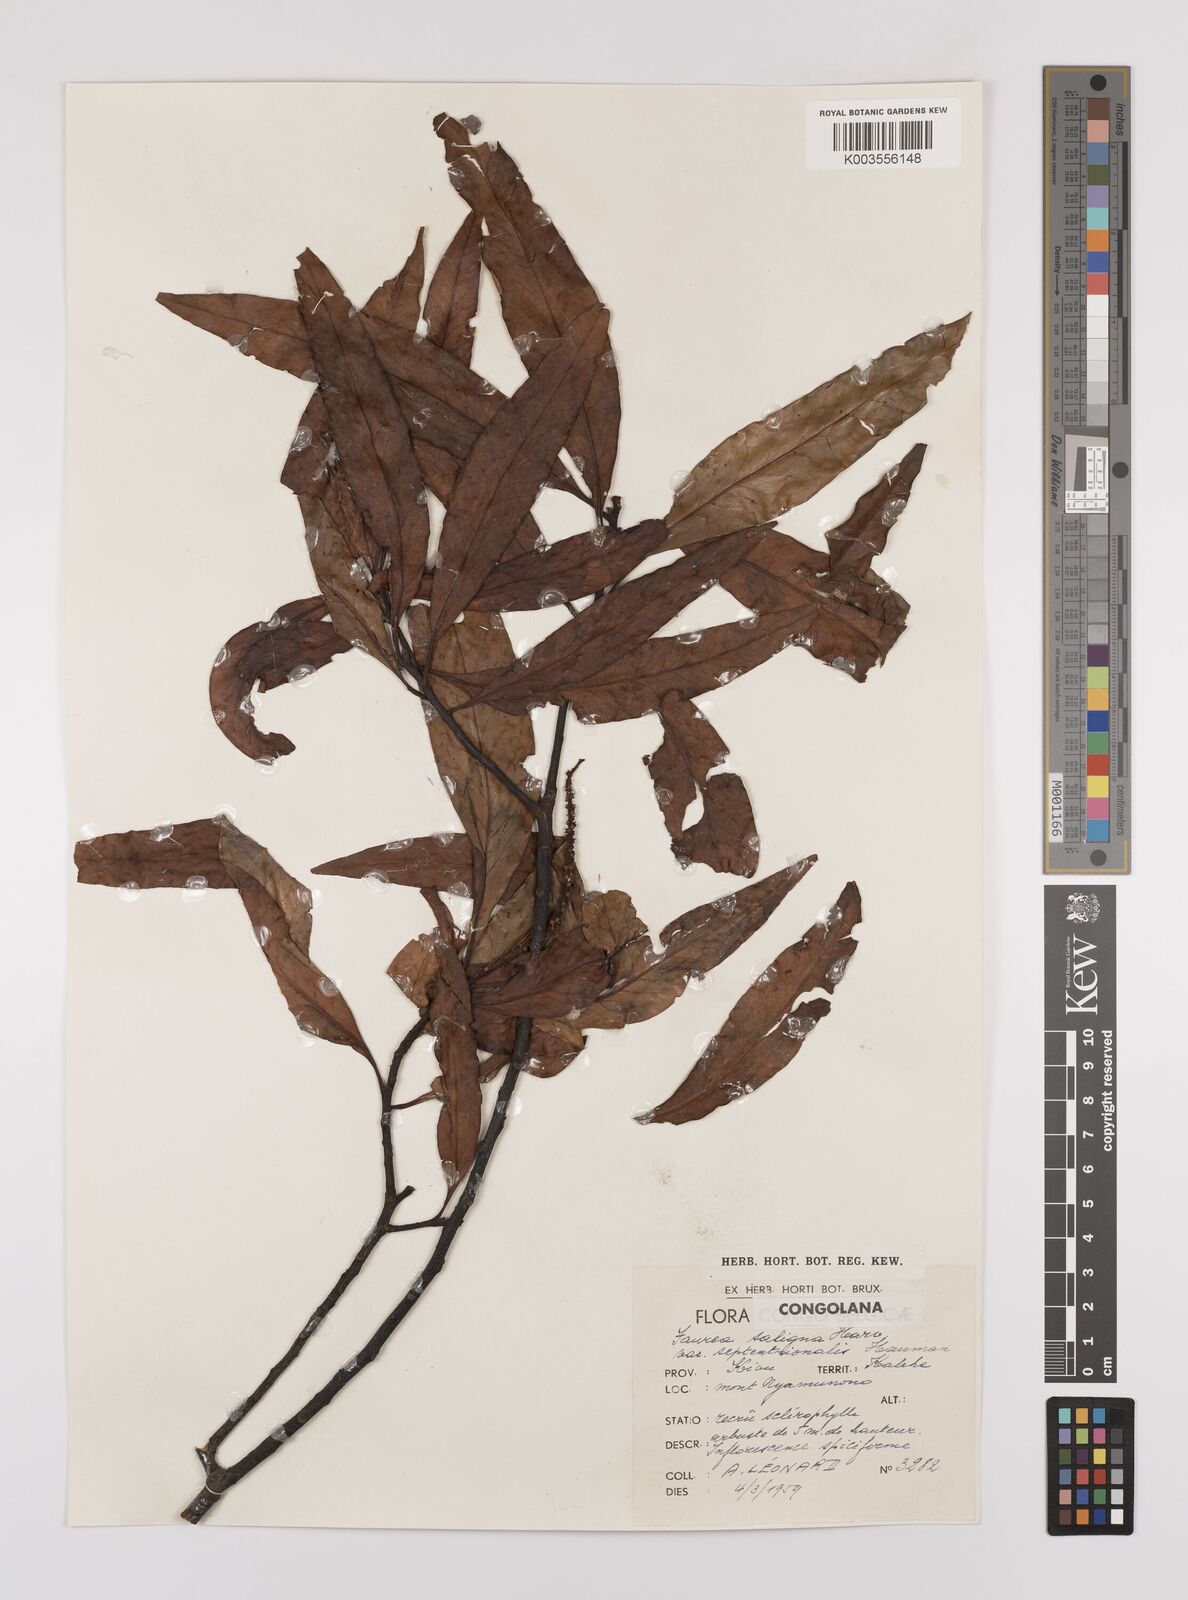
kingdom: Plantae
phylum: Tracheophyta
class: Magnoliopsida
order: Proteales
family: Proteaceae
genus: Faurea
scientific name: Faurea saligna
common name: African bean
